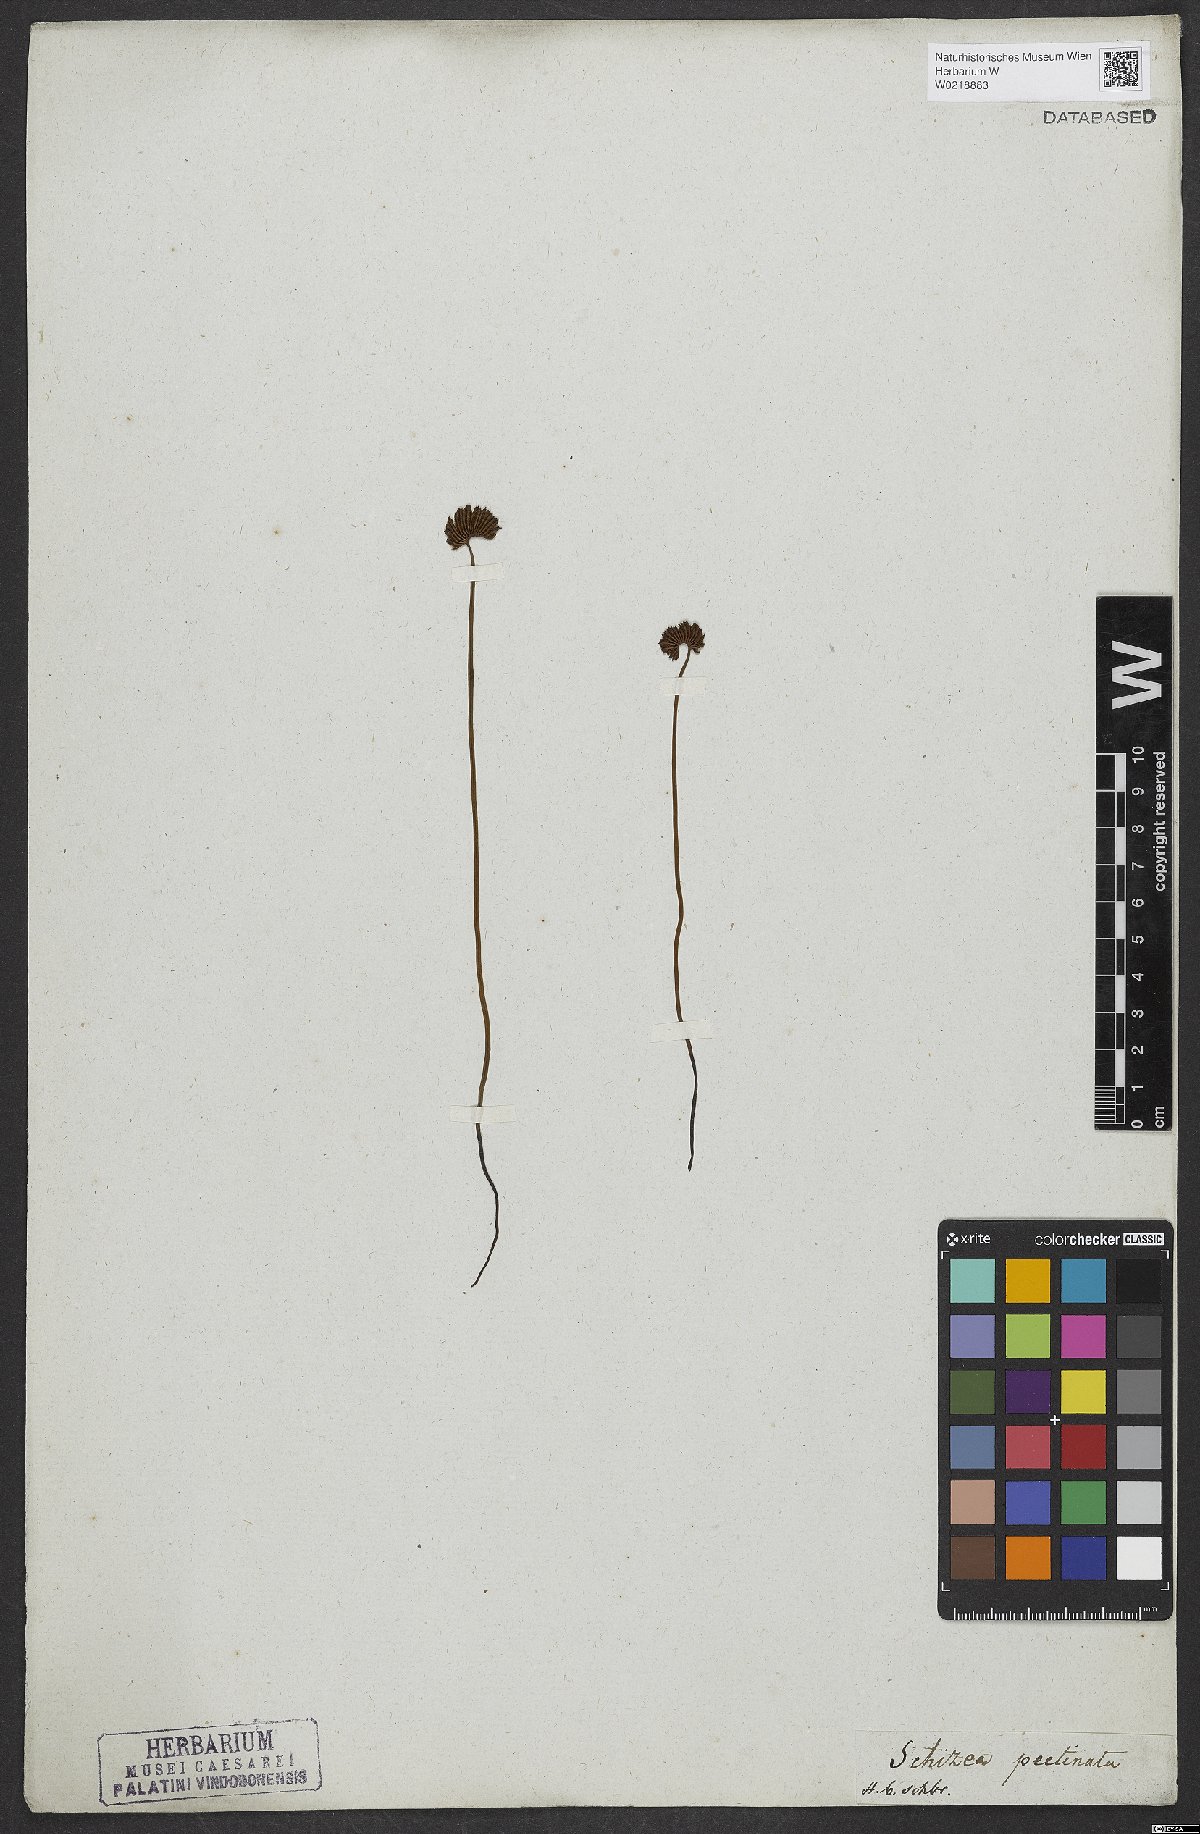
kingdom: Plantae
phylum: Tracheophyta
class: Polypodiopsida
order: Schizaeales
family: Schizaeaceae
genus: Schizaea
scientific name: Schizaea pectinata
